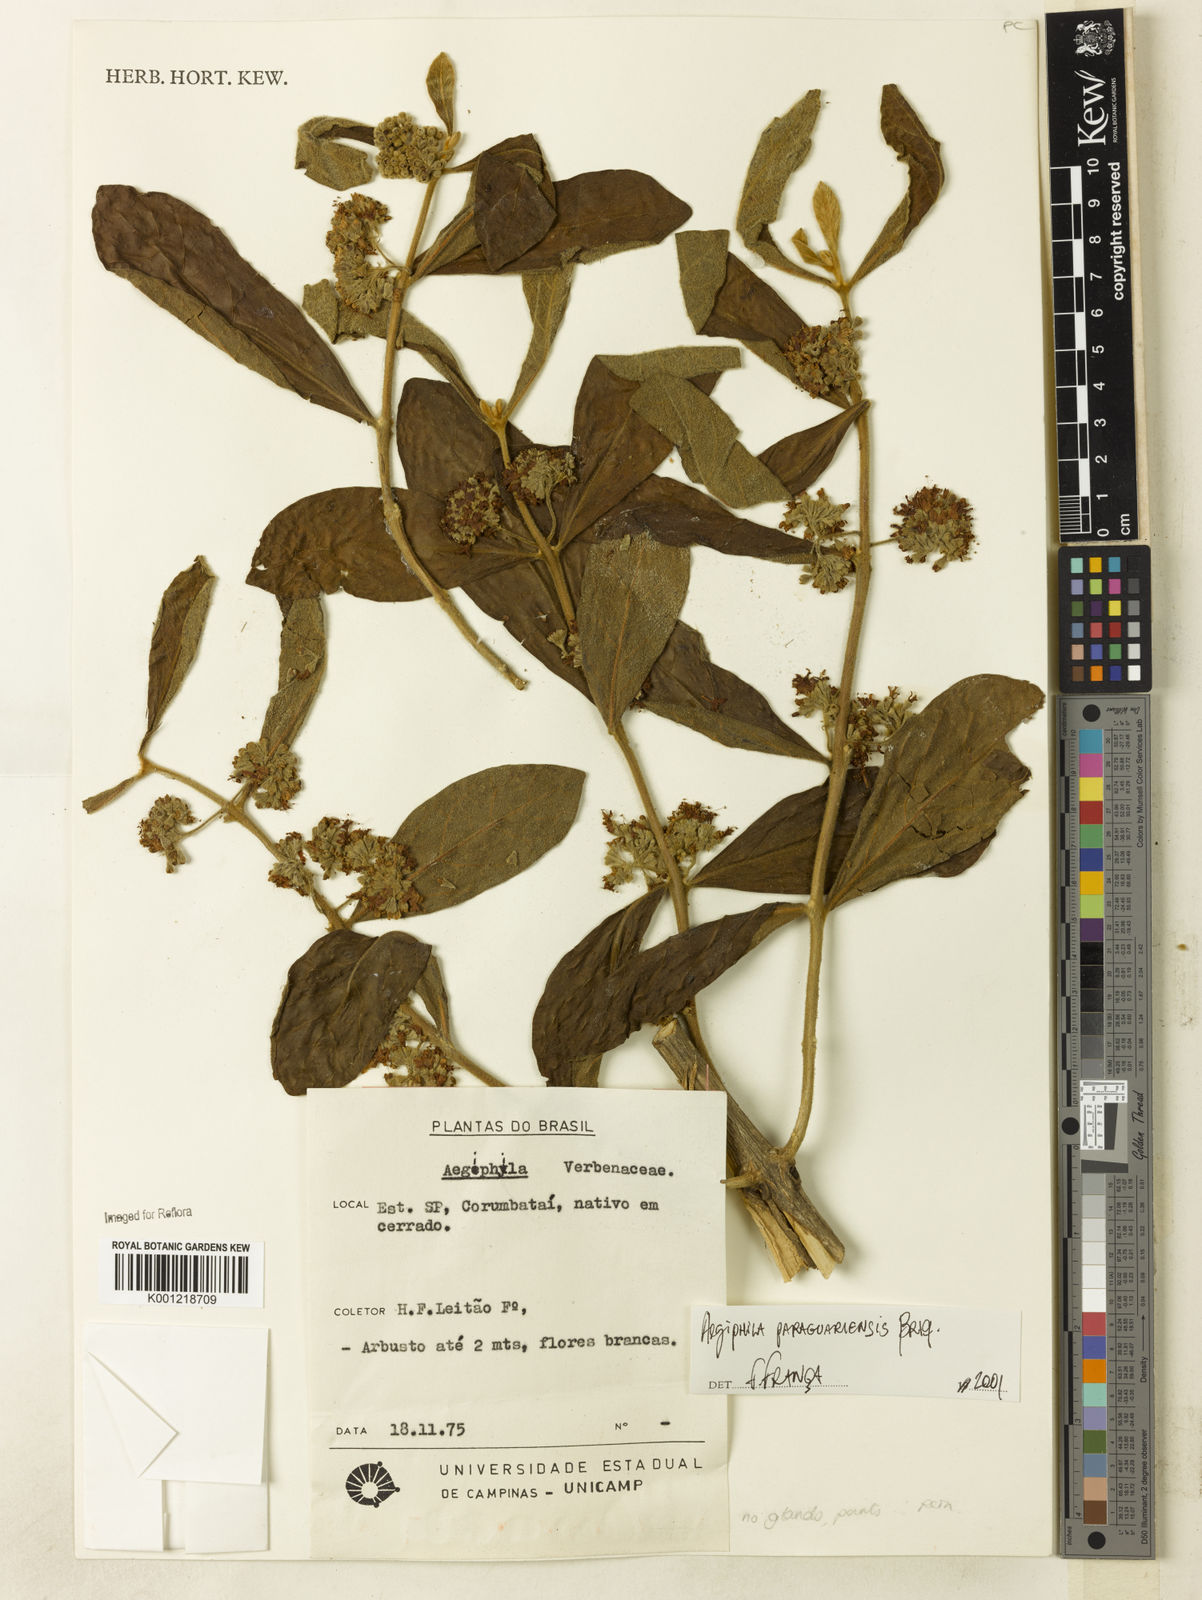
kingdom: Plantae
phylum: Tracheophyta
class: Magnoliopsida
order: Lamiales
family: Lamiaceae
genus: Aegiphila
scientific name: Aegiphila paraguariensis
